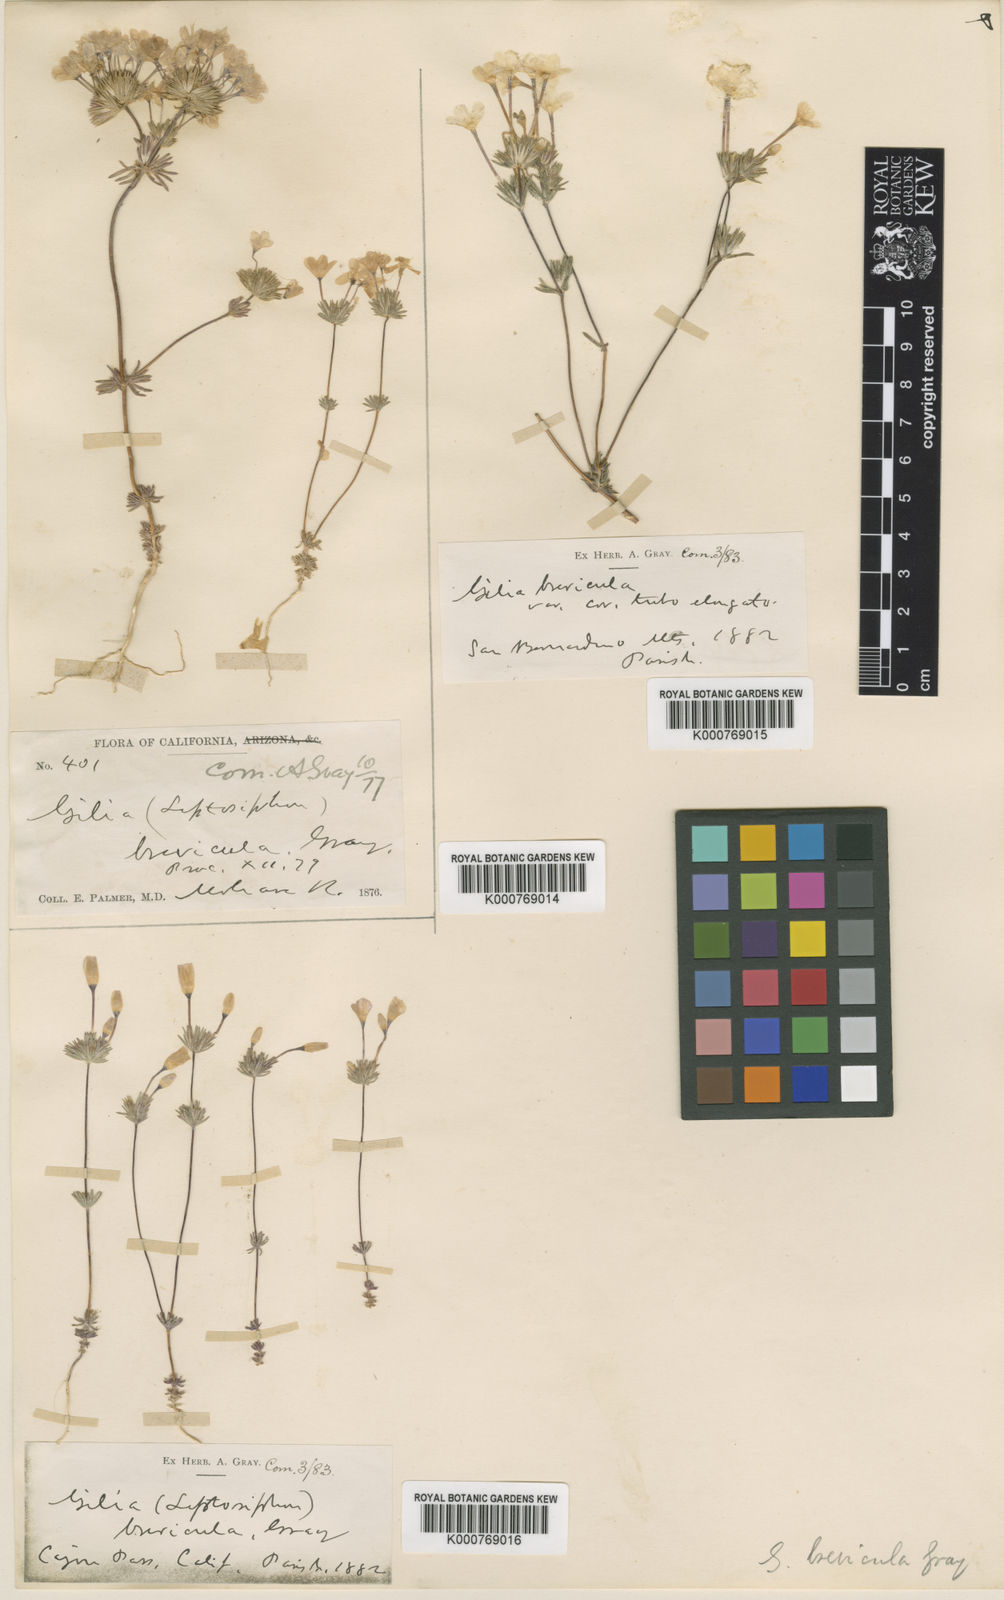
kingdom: Plantae
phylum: Tracheophyta
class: Magnoliopsida
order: Ericales
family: Polemoniaceae
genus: Leptosiphon
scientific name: Leptosiphon breviculus
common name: Mojave linanthus
